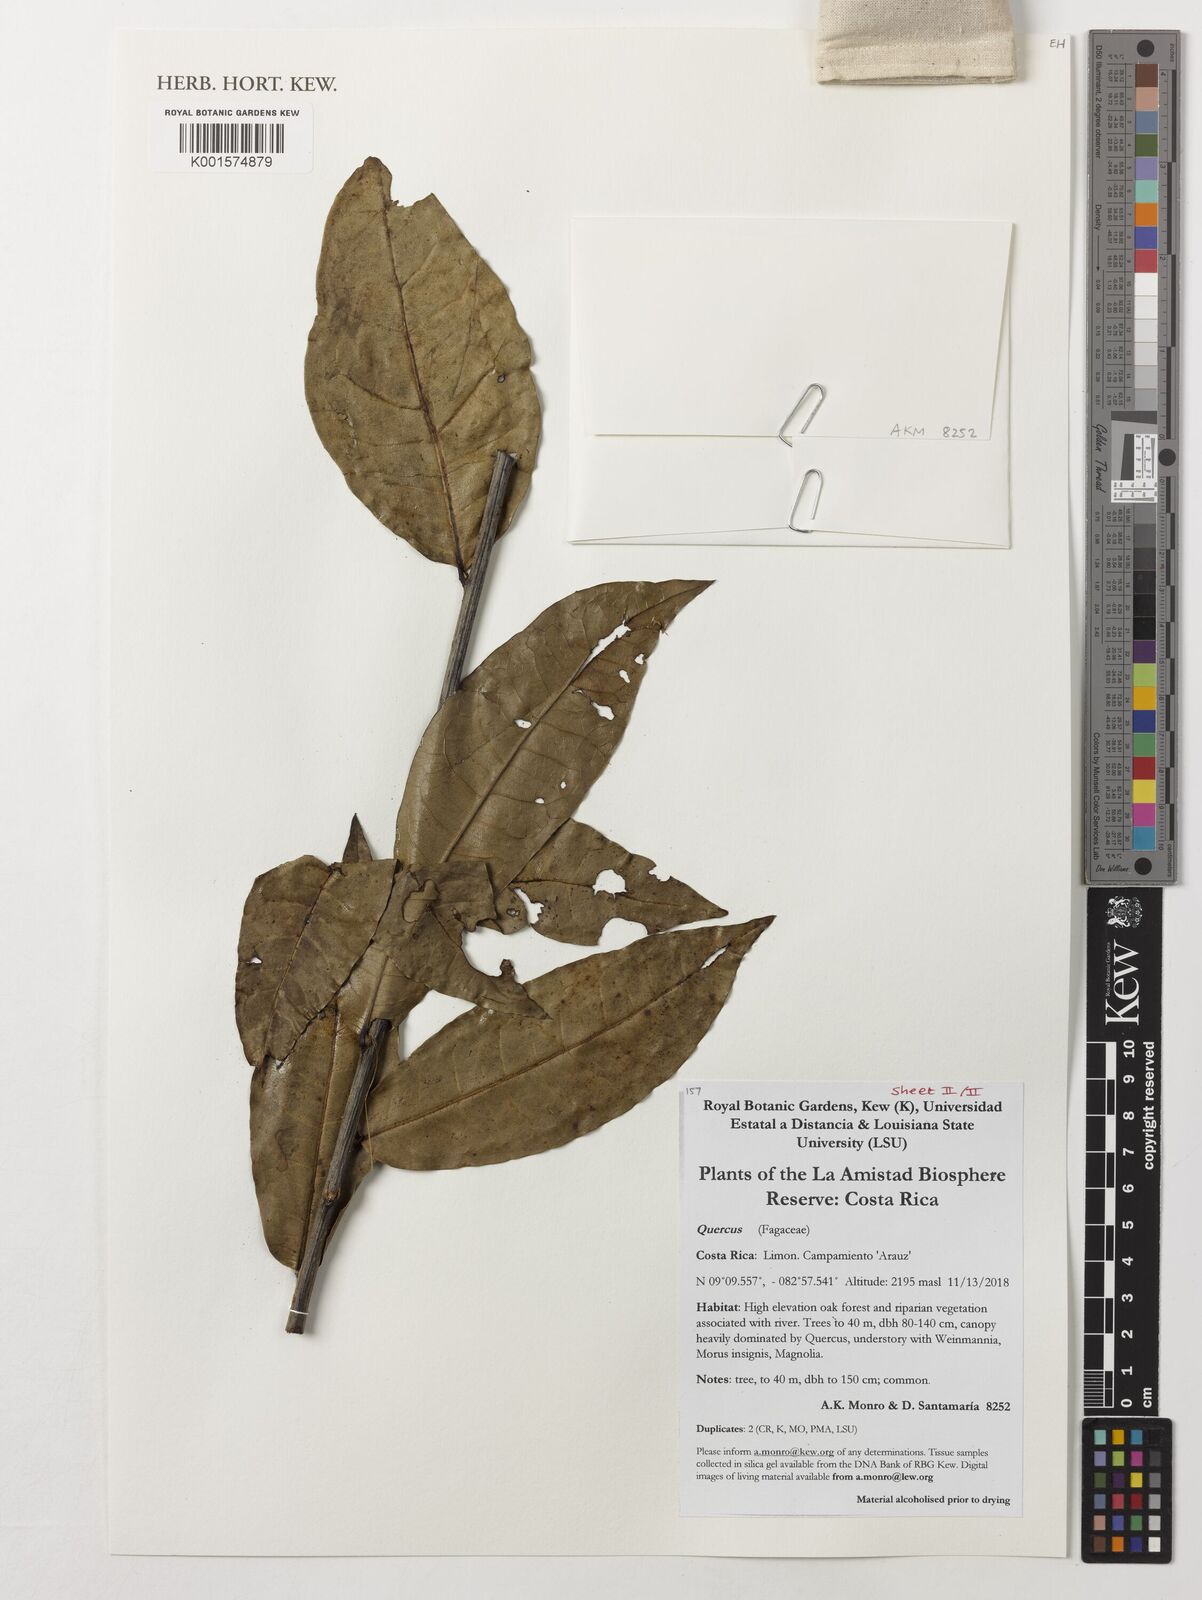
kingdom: Plantae
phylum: Tracheophyta
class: Magnoliopsida
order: Fagales
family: Fagaceae
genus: Quercus
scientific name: Quercus
